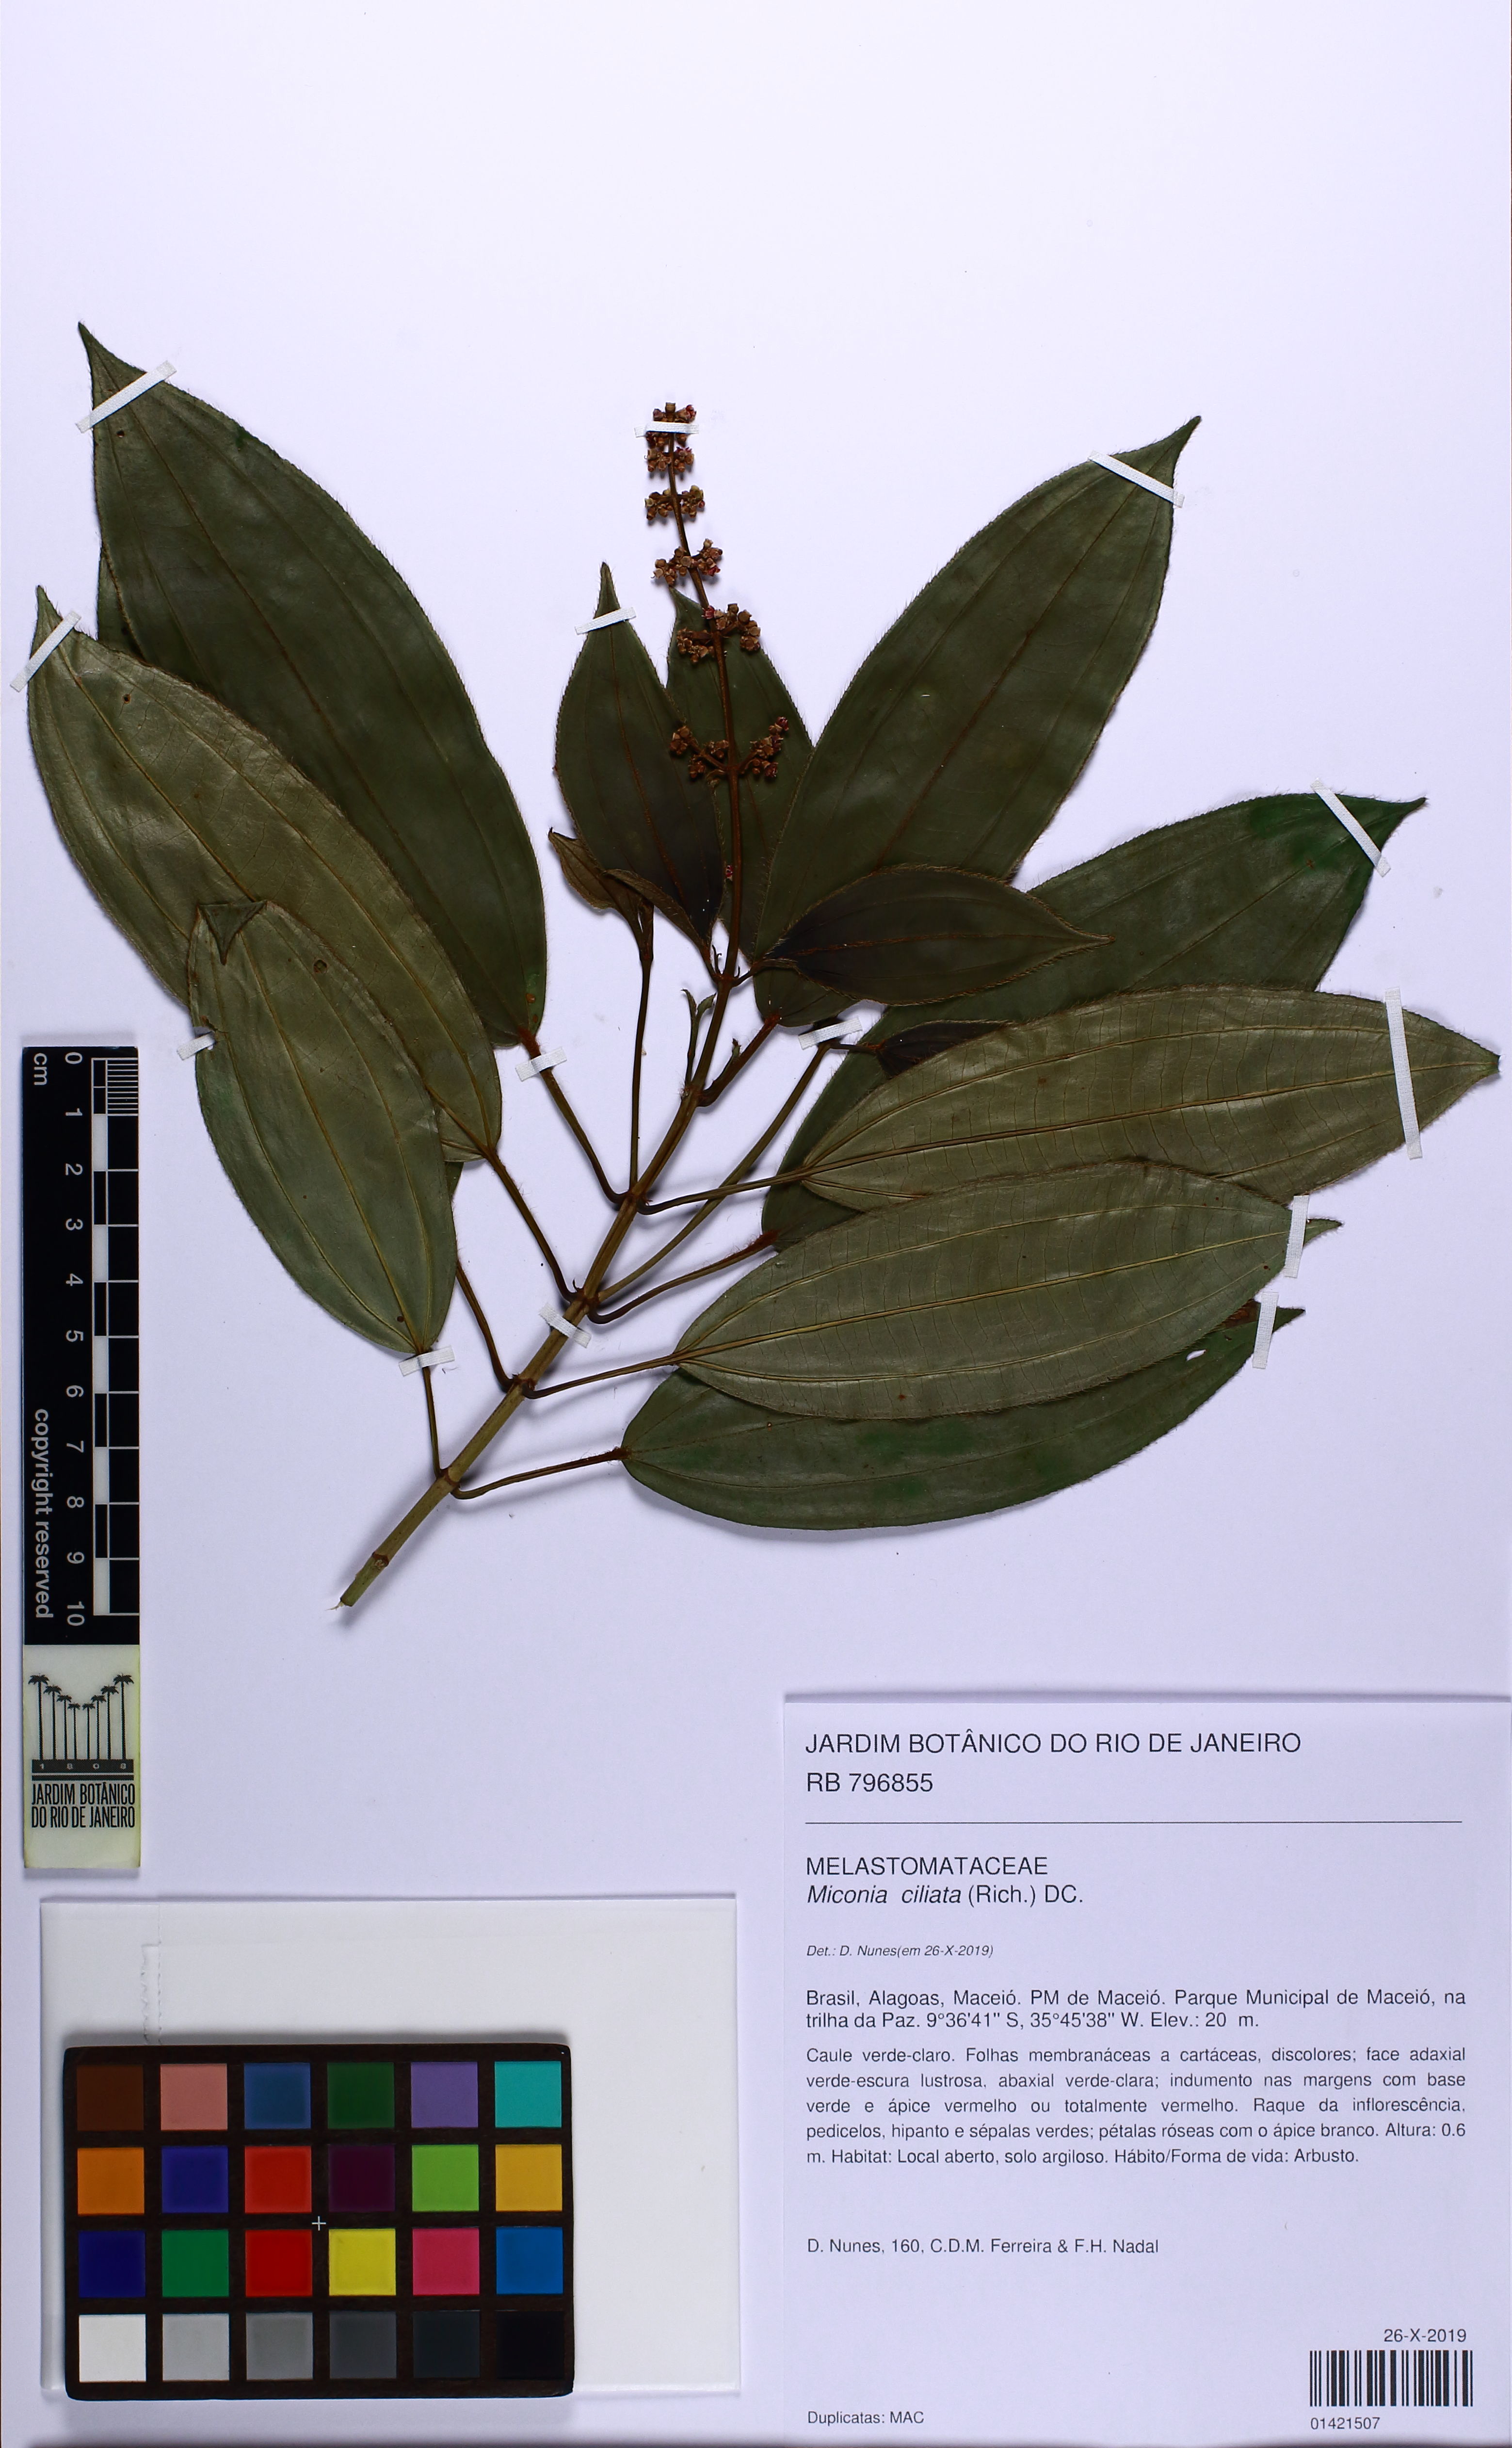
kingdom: Plantae
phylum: Tracheophyta
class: Magnoliopsida
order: Myrtales
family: Melastomataceae
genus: Miconia
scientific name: Miconia ciliata
